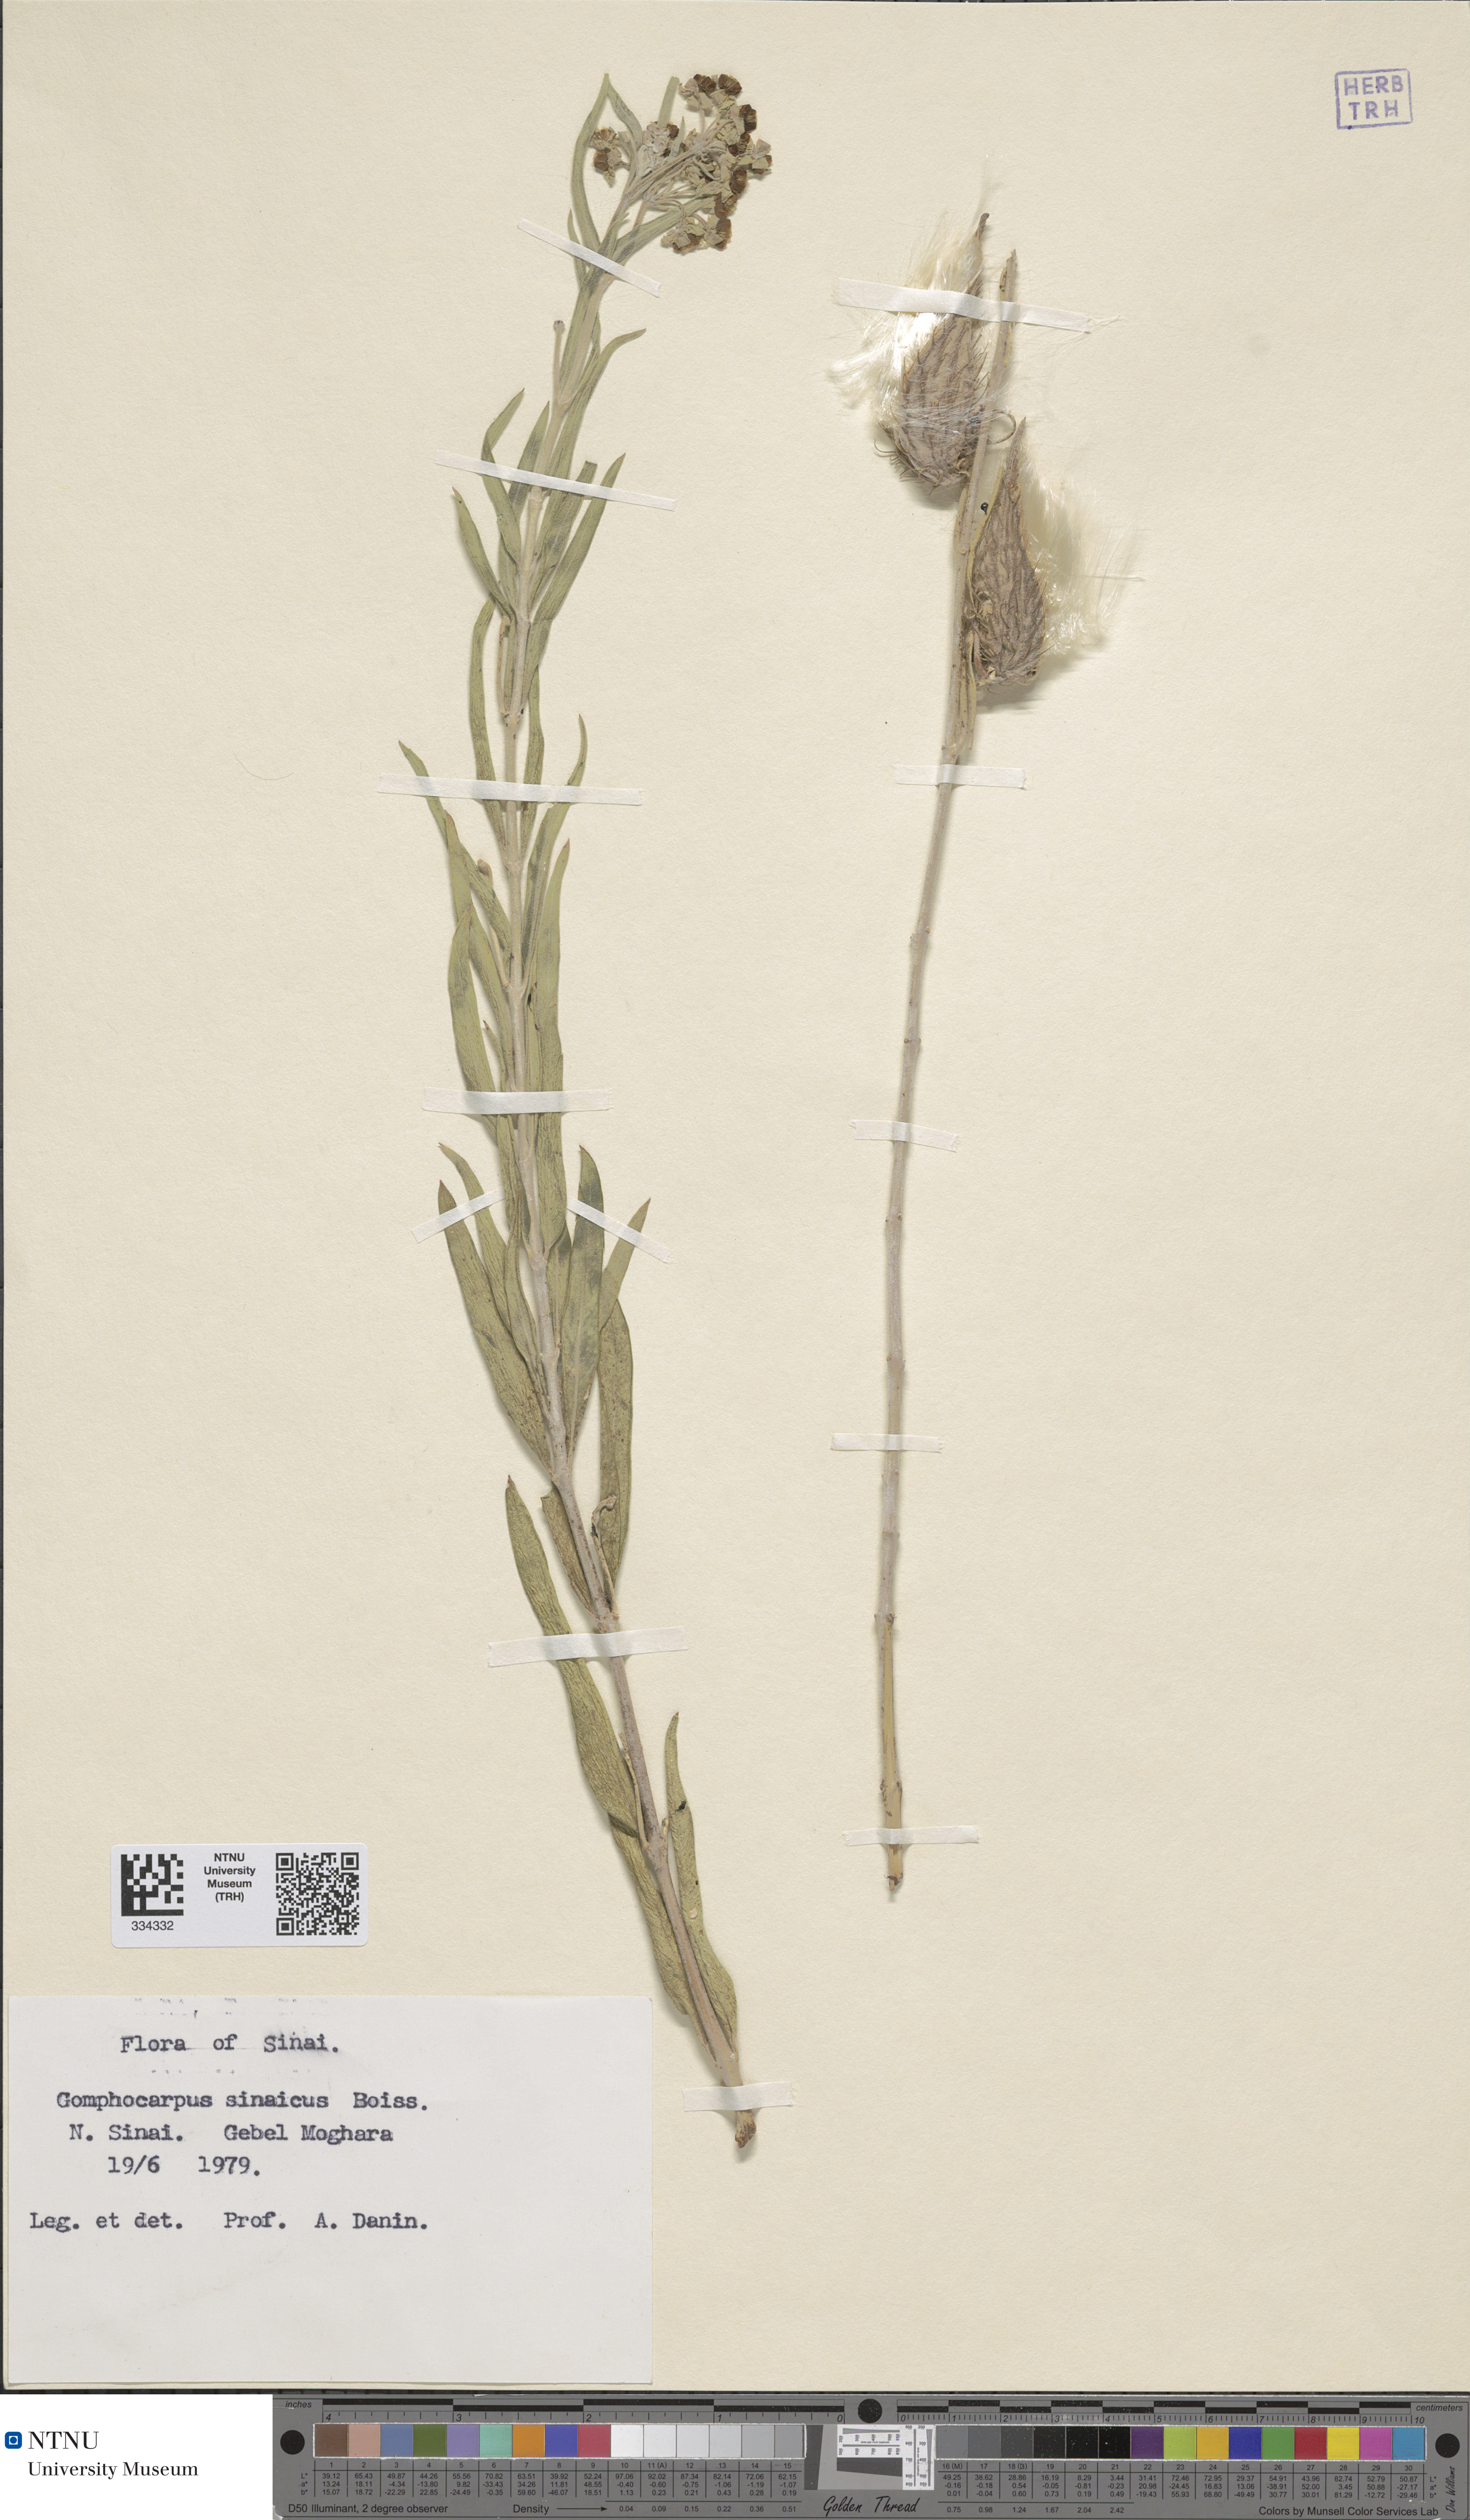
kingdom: Plantae
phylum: Tracheophyta
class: Magnoliopsida
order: Gentianales
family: Apocynaceae
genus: Gomphocarpus
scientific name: Gomphocarpus sinaicus
